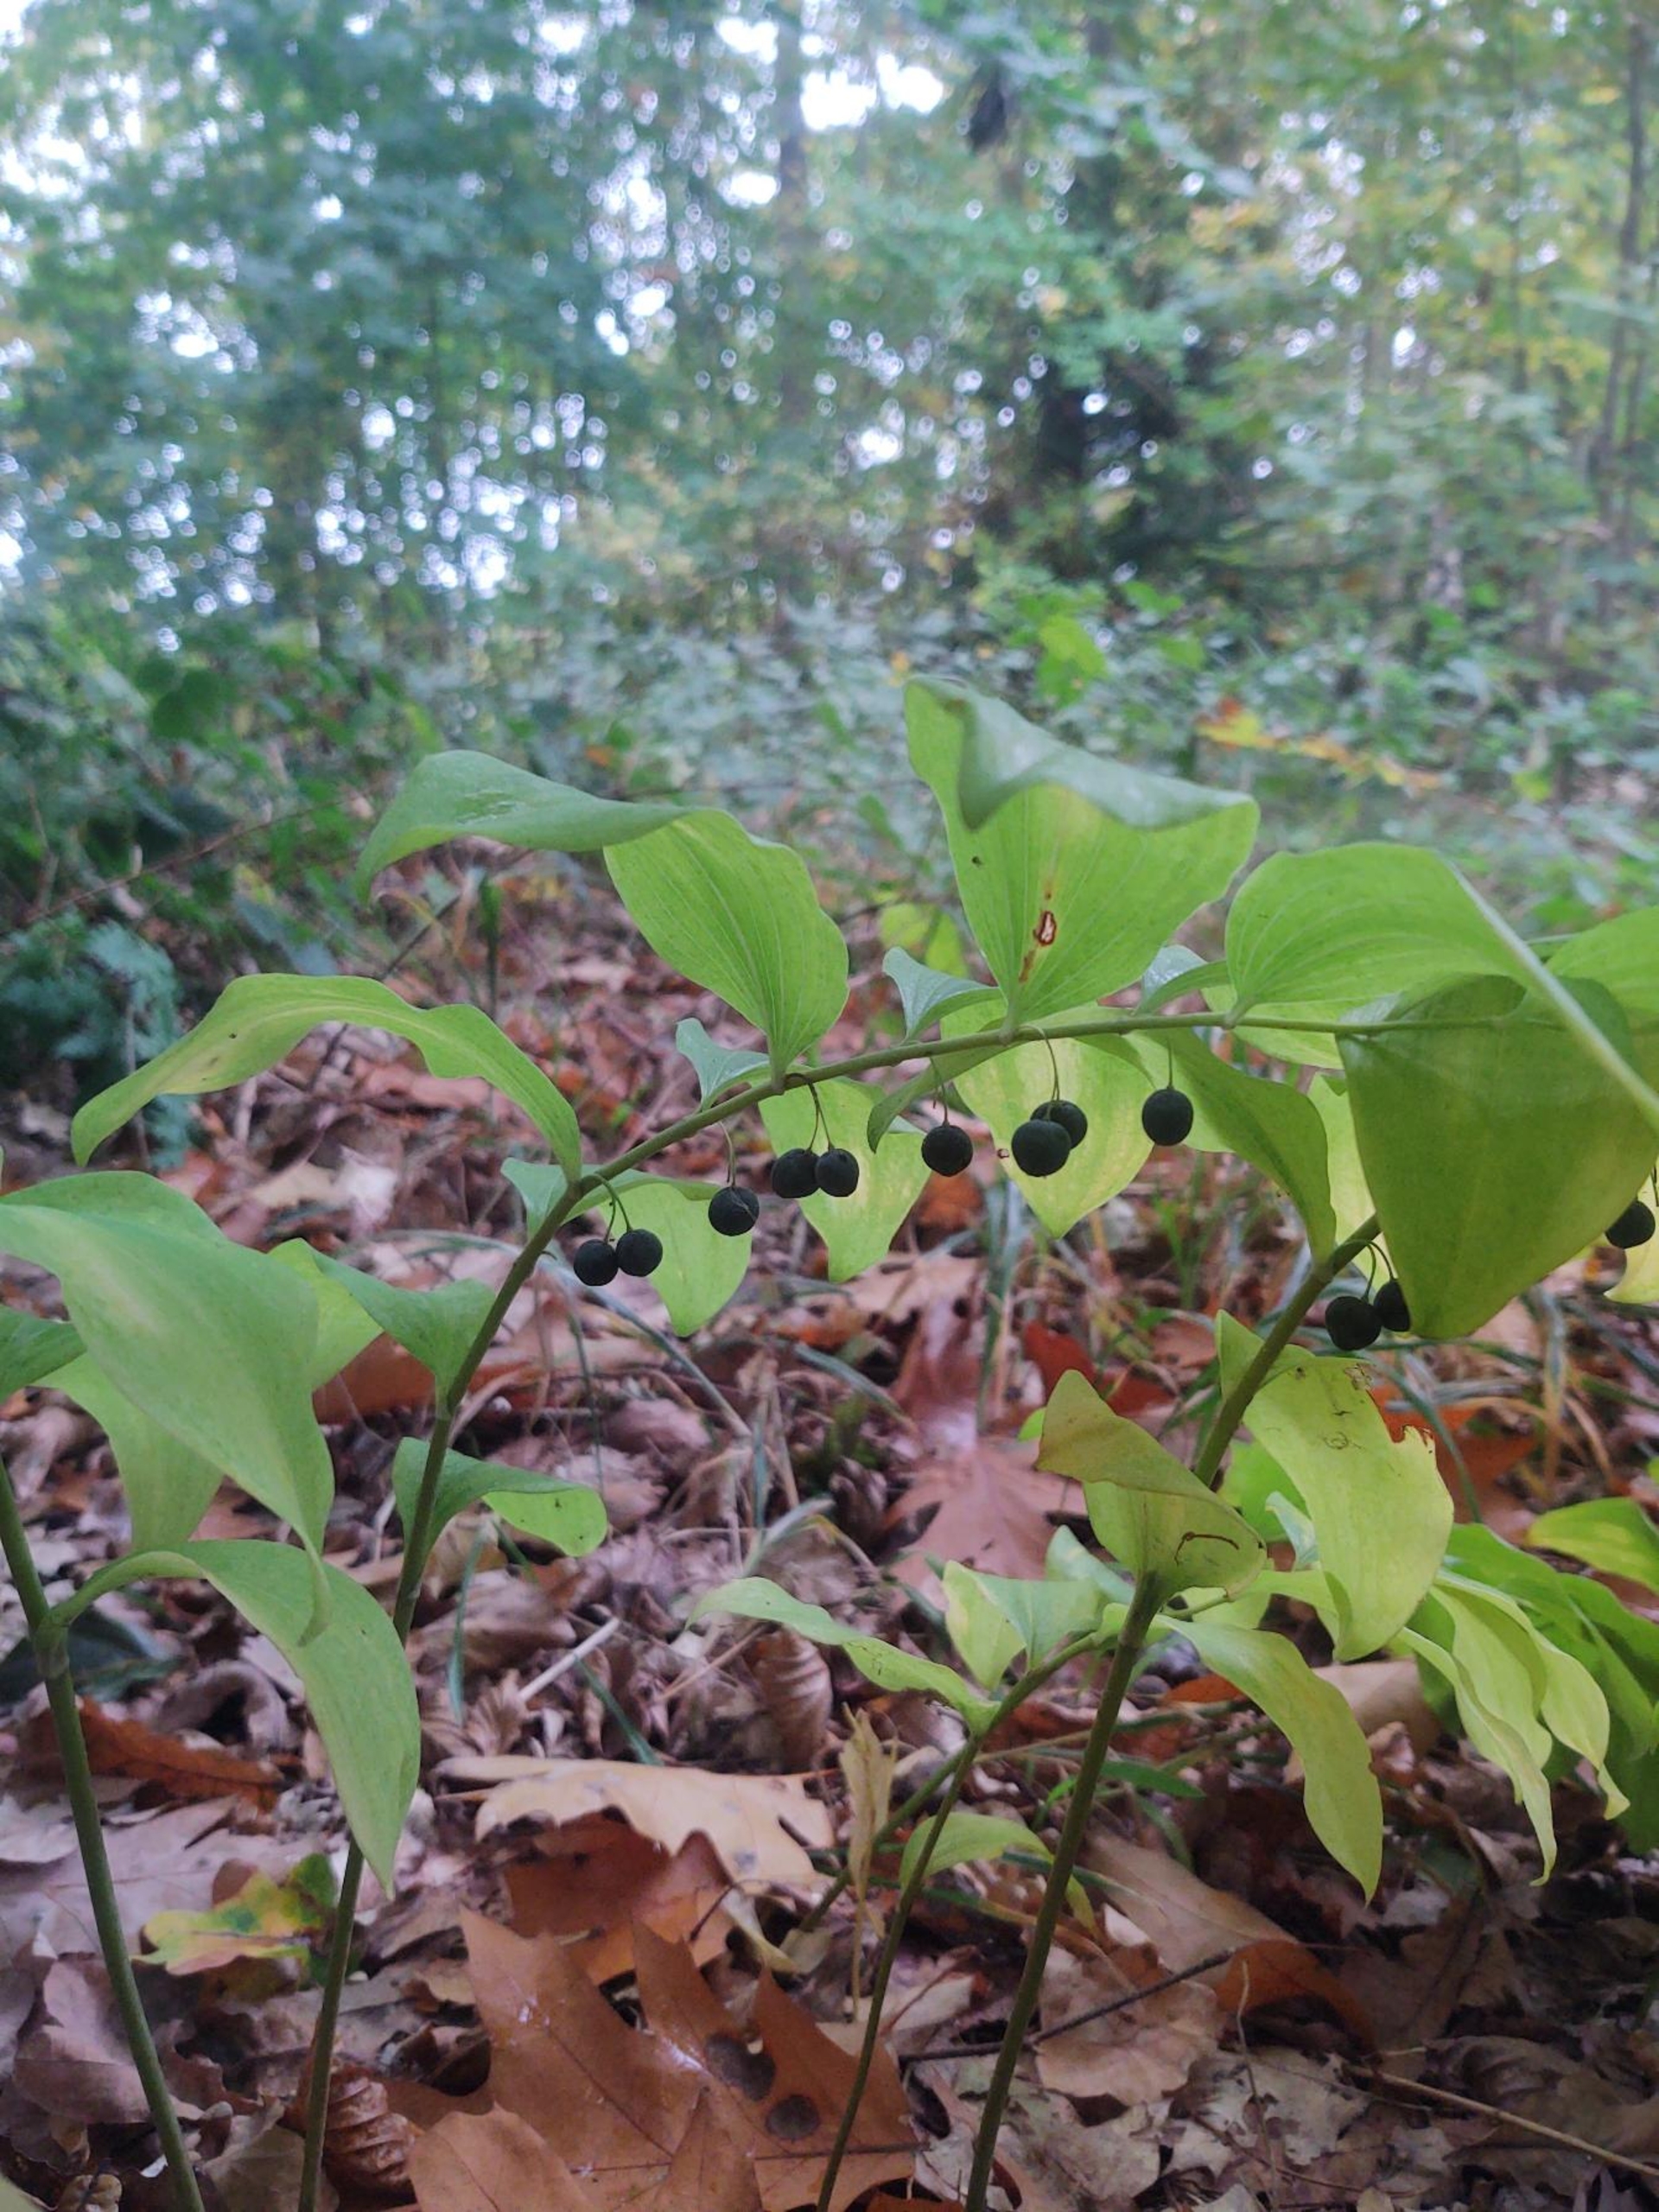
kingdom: Plantae
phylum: Tracheophyta
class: Liliopsida
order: Asparagales
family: Asparagaceae
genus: Polygonatum
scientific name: Polygonatum multiflorum
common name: Stor konval
